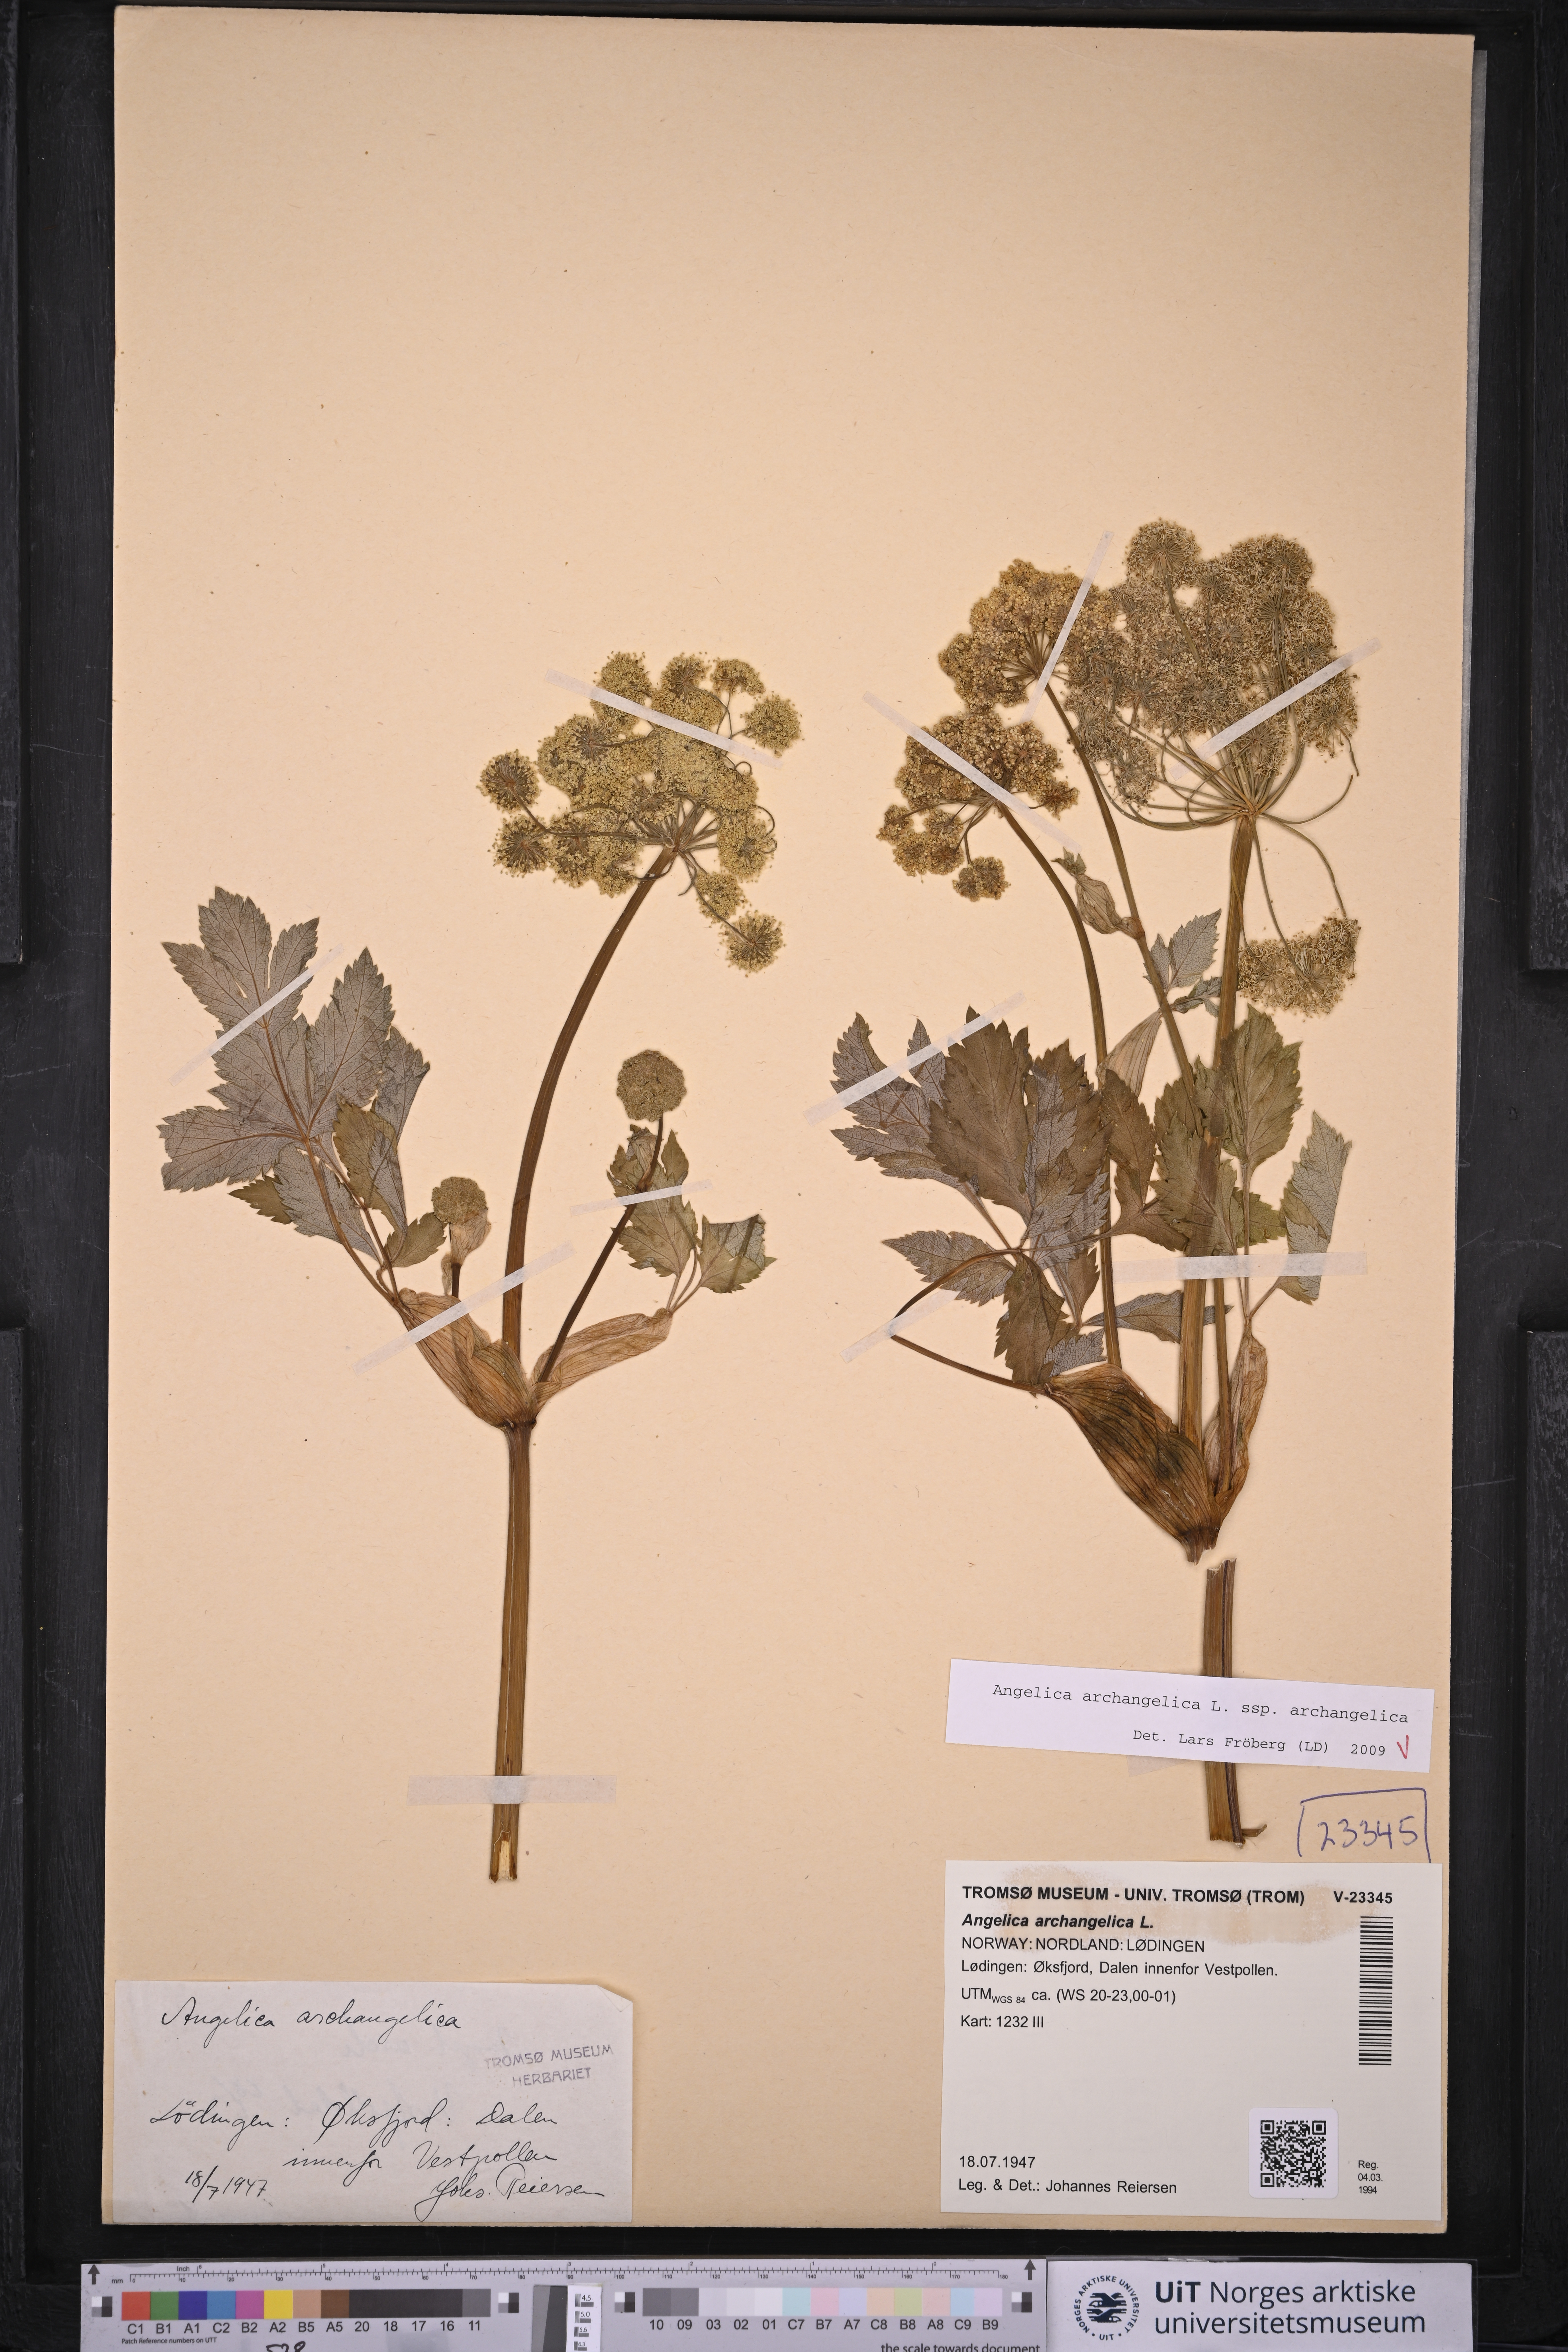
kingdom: Plantae
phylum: Tracheophyta
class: Magnoliopsida
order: Apiales
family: Apiaceae
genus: Angelica
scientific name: Angelica archangelica
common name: Garden angelica
